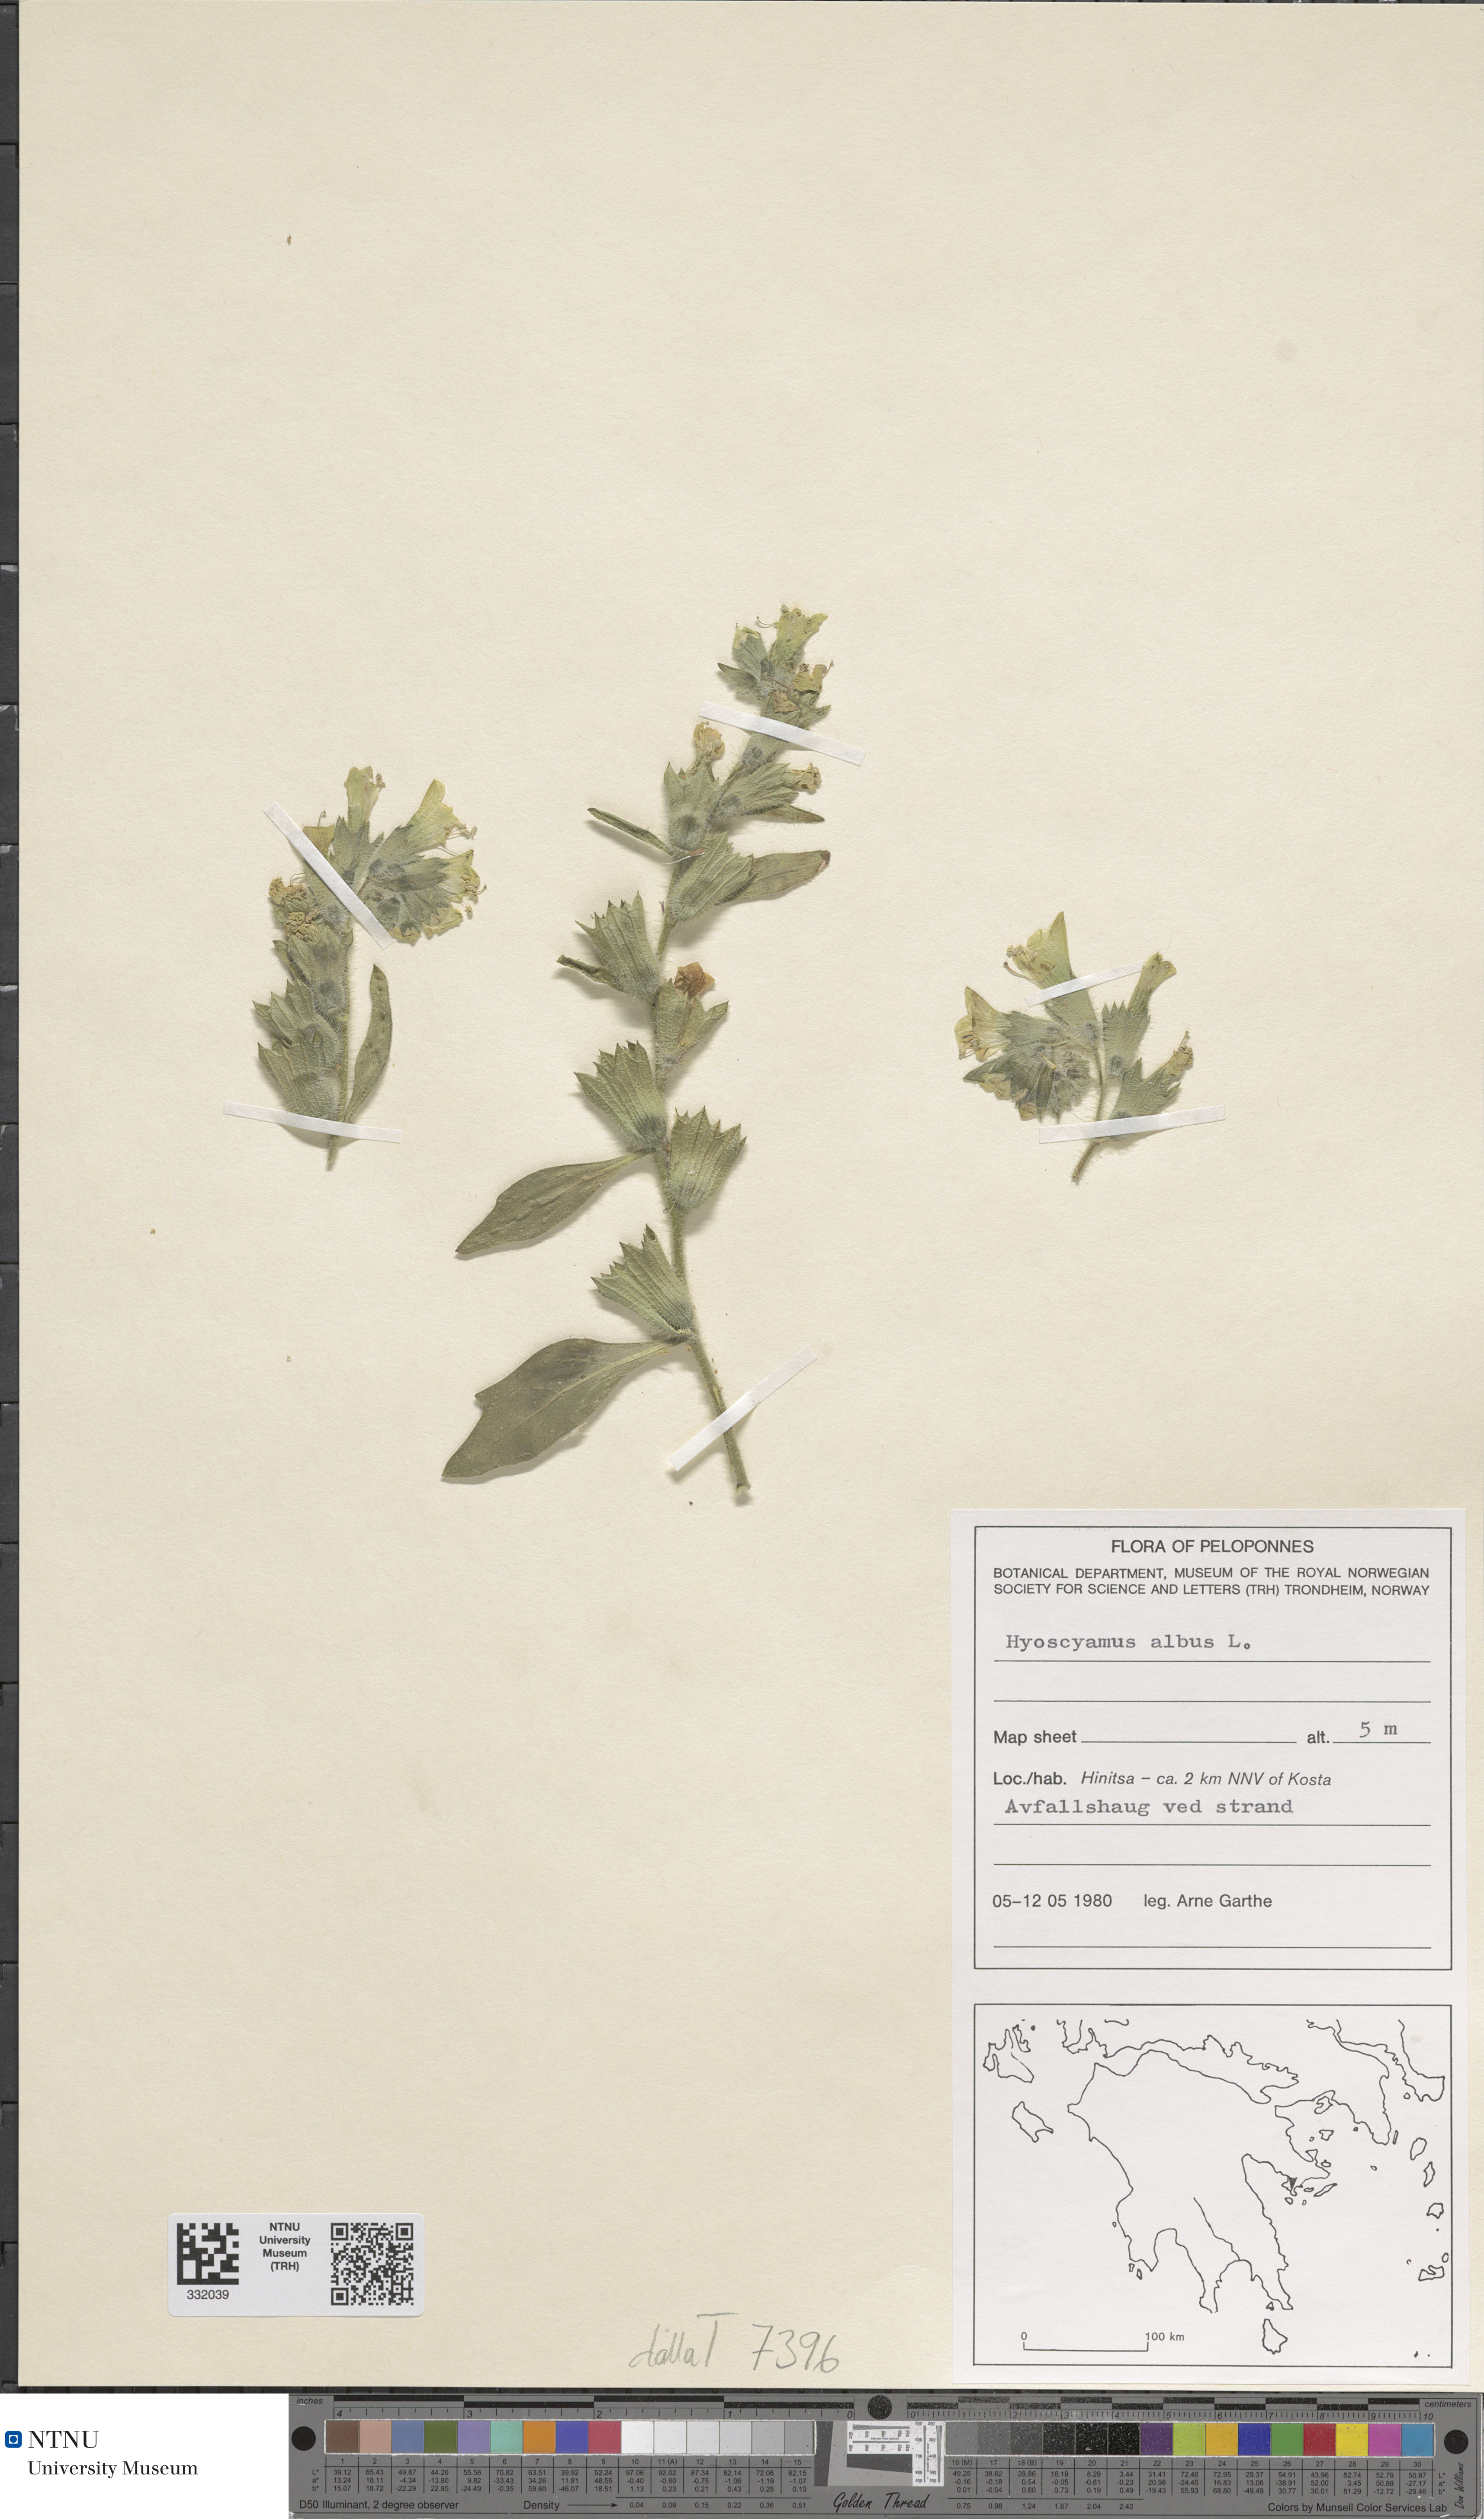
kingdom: Plantae
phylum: Tracheophyta
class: Magnoliopsida
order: Solanales
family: Solanaceae
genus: Hyoscyamus
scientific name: Hyoscyamus albus
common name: White henbane
